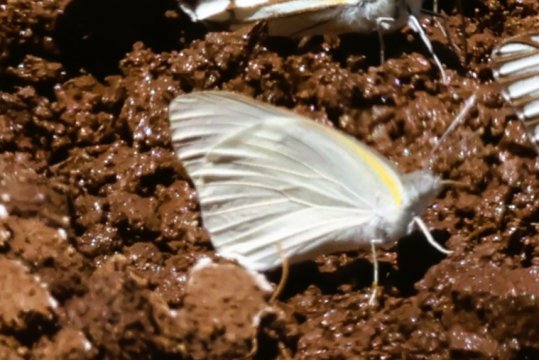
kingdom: Animalia
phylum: Arthropoda
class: Insecta
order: Lepidoptera
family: Pieridae
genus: Colotis
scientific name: Colotis eris
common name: Banded Gold Tip
